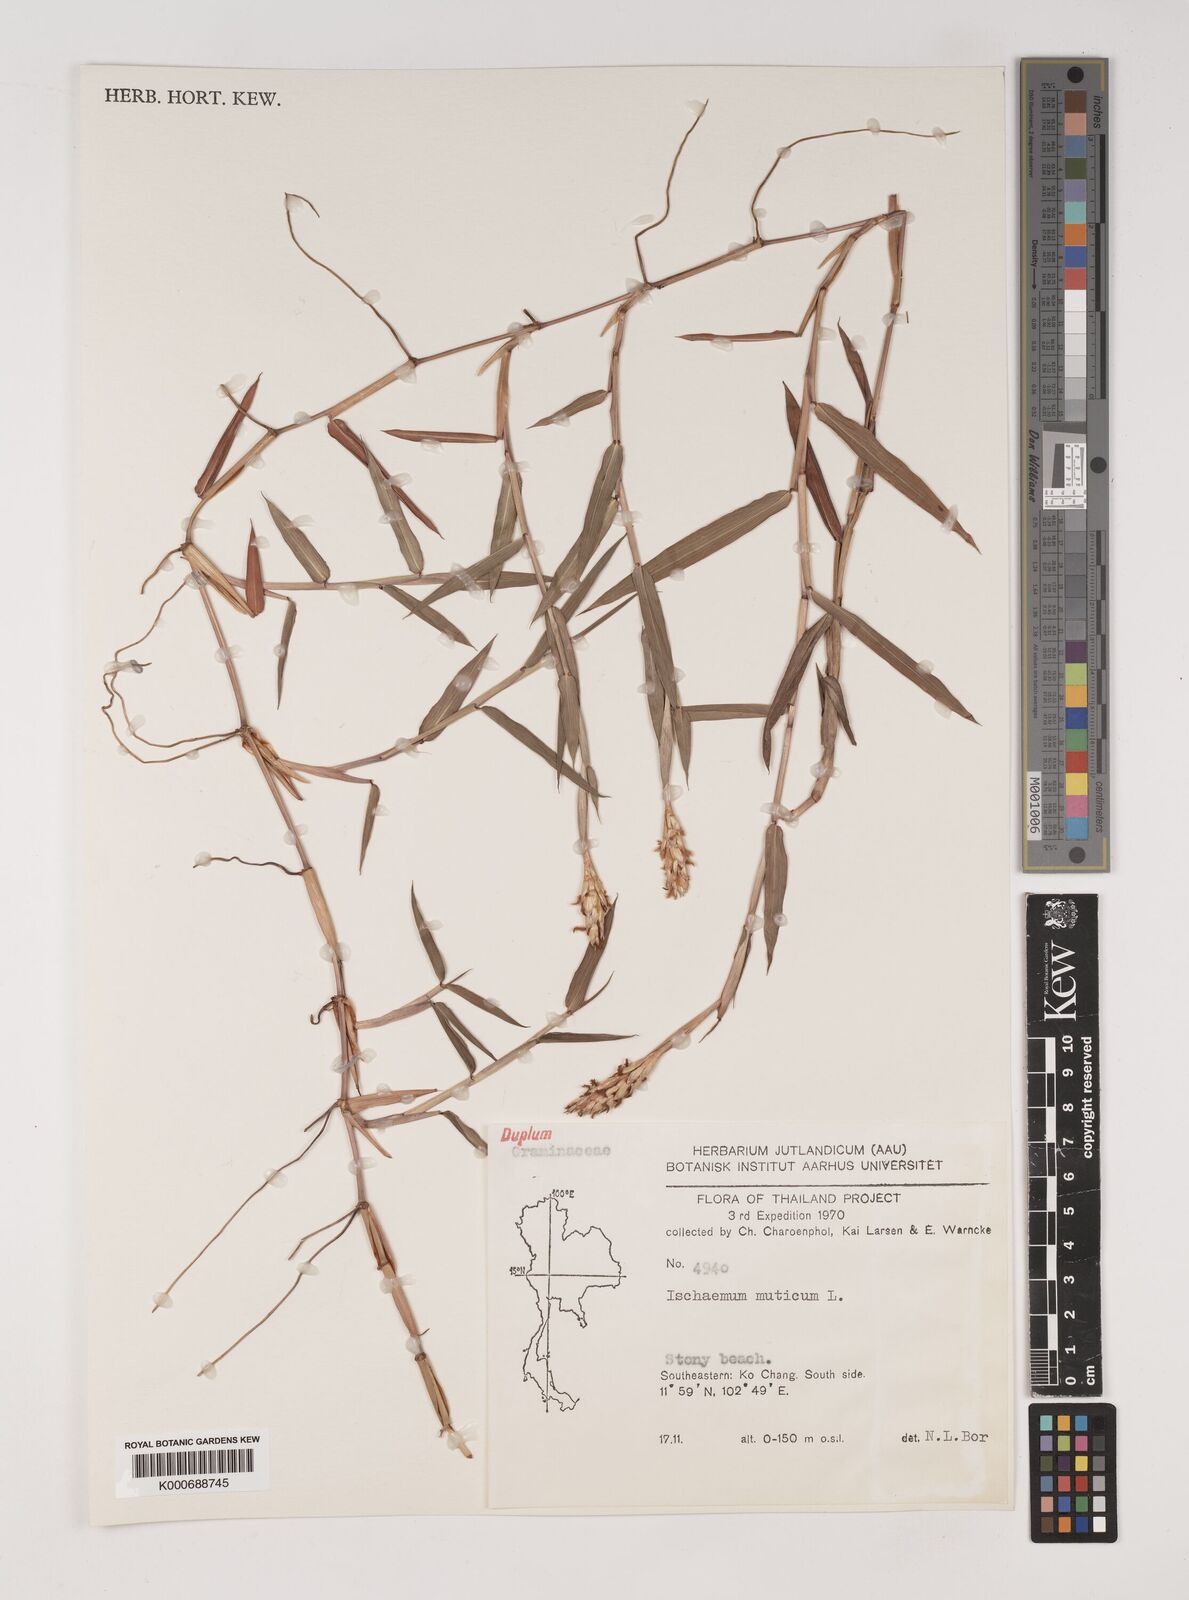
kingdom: Plantae
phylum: Tracheophyta
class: Liliopsida
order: Poales
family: Poaceae
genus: Ischaemum
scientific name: Ischaemum muticum
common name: Drought grass
